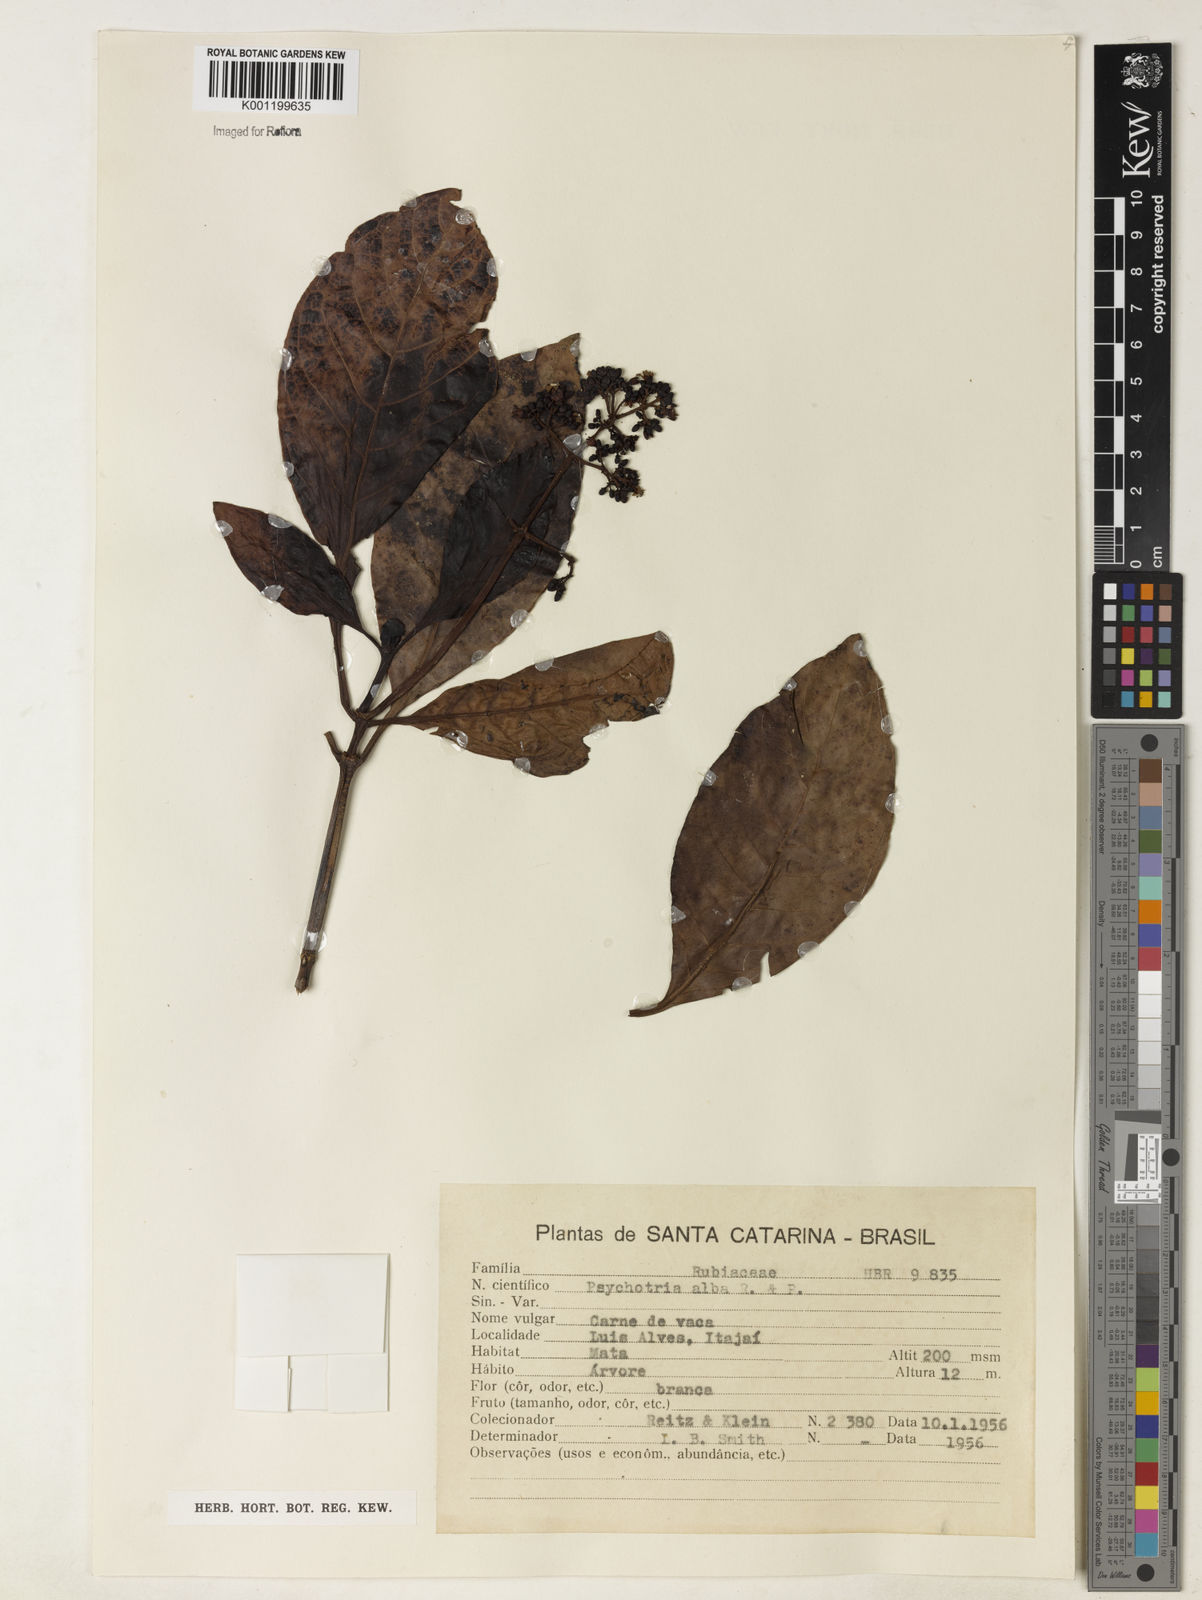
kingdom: Plantae
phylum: Tracheophyta
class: Magnoliopsida
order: Gentianales
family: Rubiaceae
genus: Psychotria
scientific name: Psychotria carthagenensis
